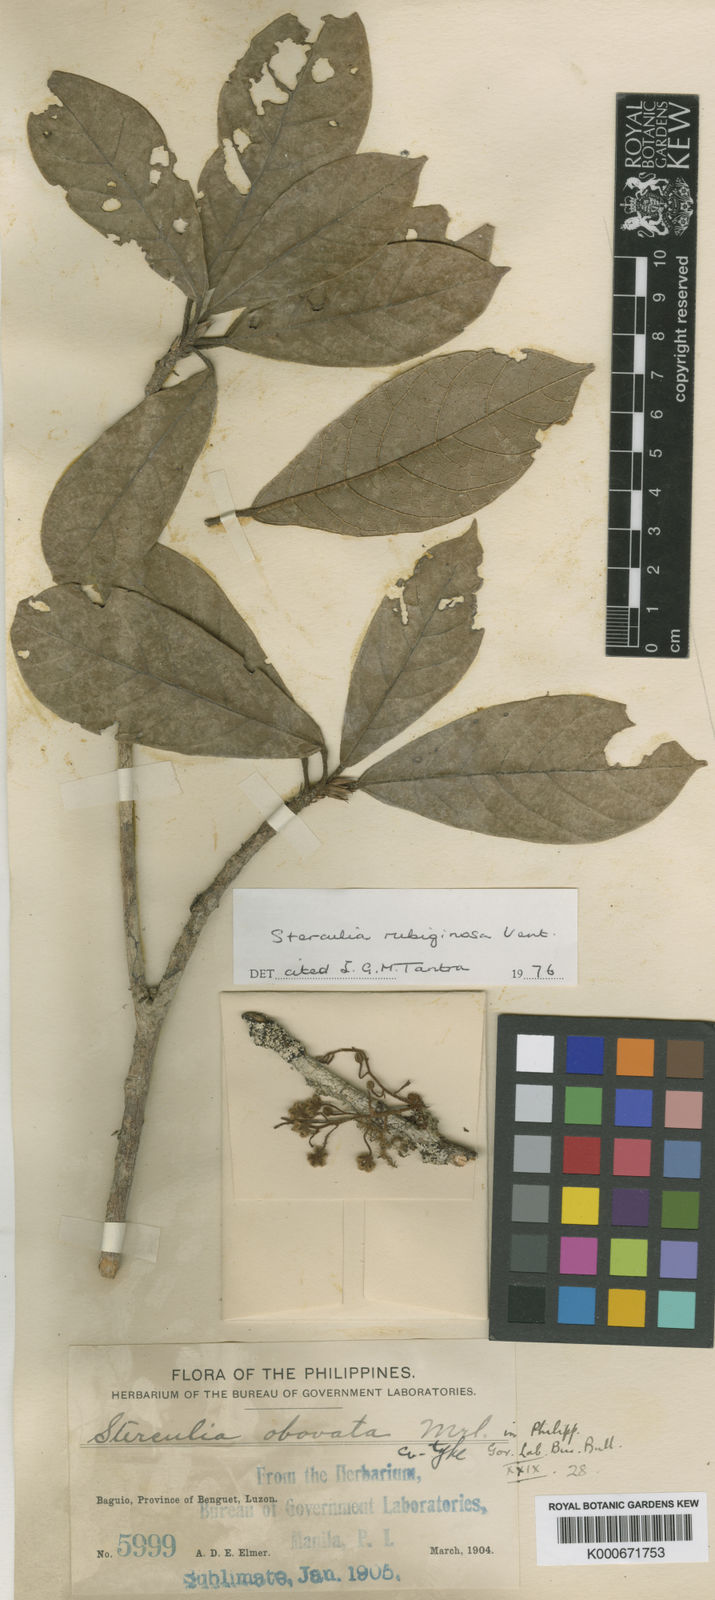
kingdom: Plantae
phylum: Tracheophyta
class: Magnoliopsida
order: Malvales
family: Malvaceae
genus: Sterculia
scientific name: Sterculia rubiginosa
